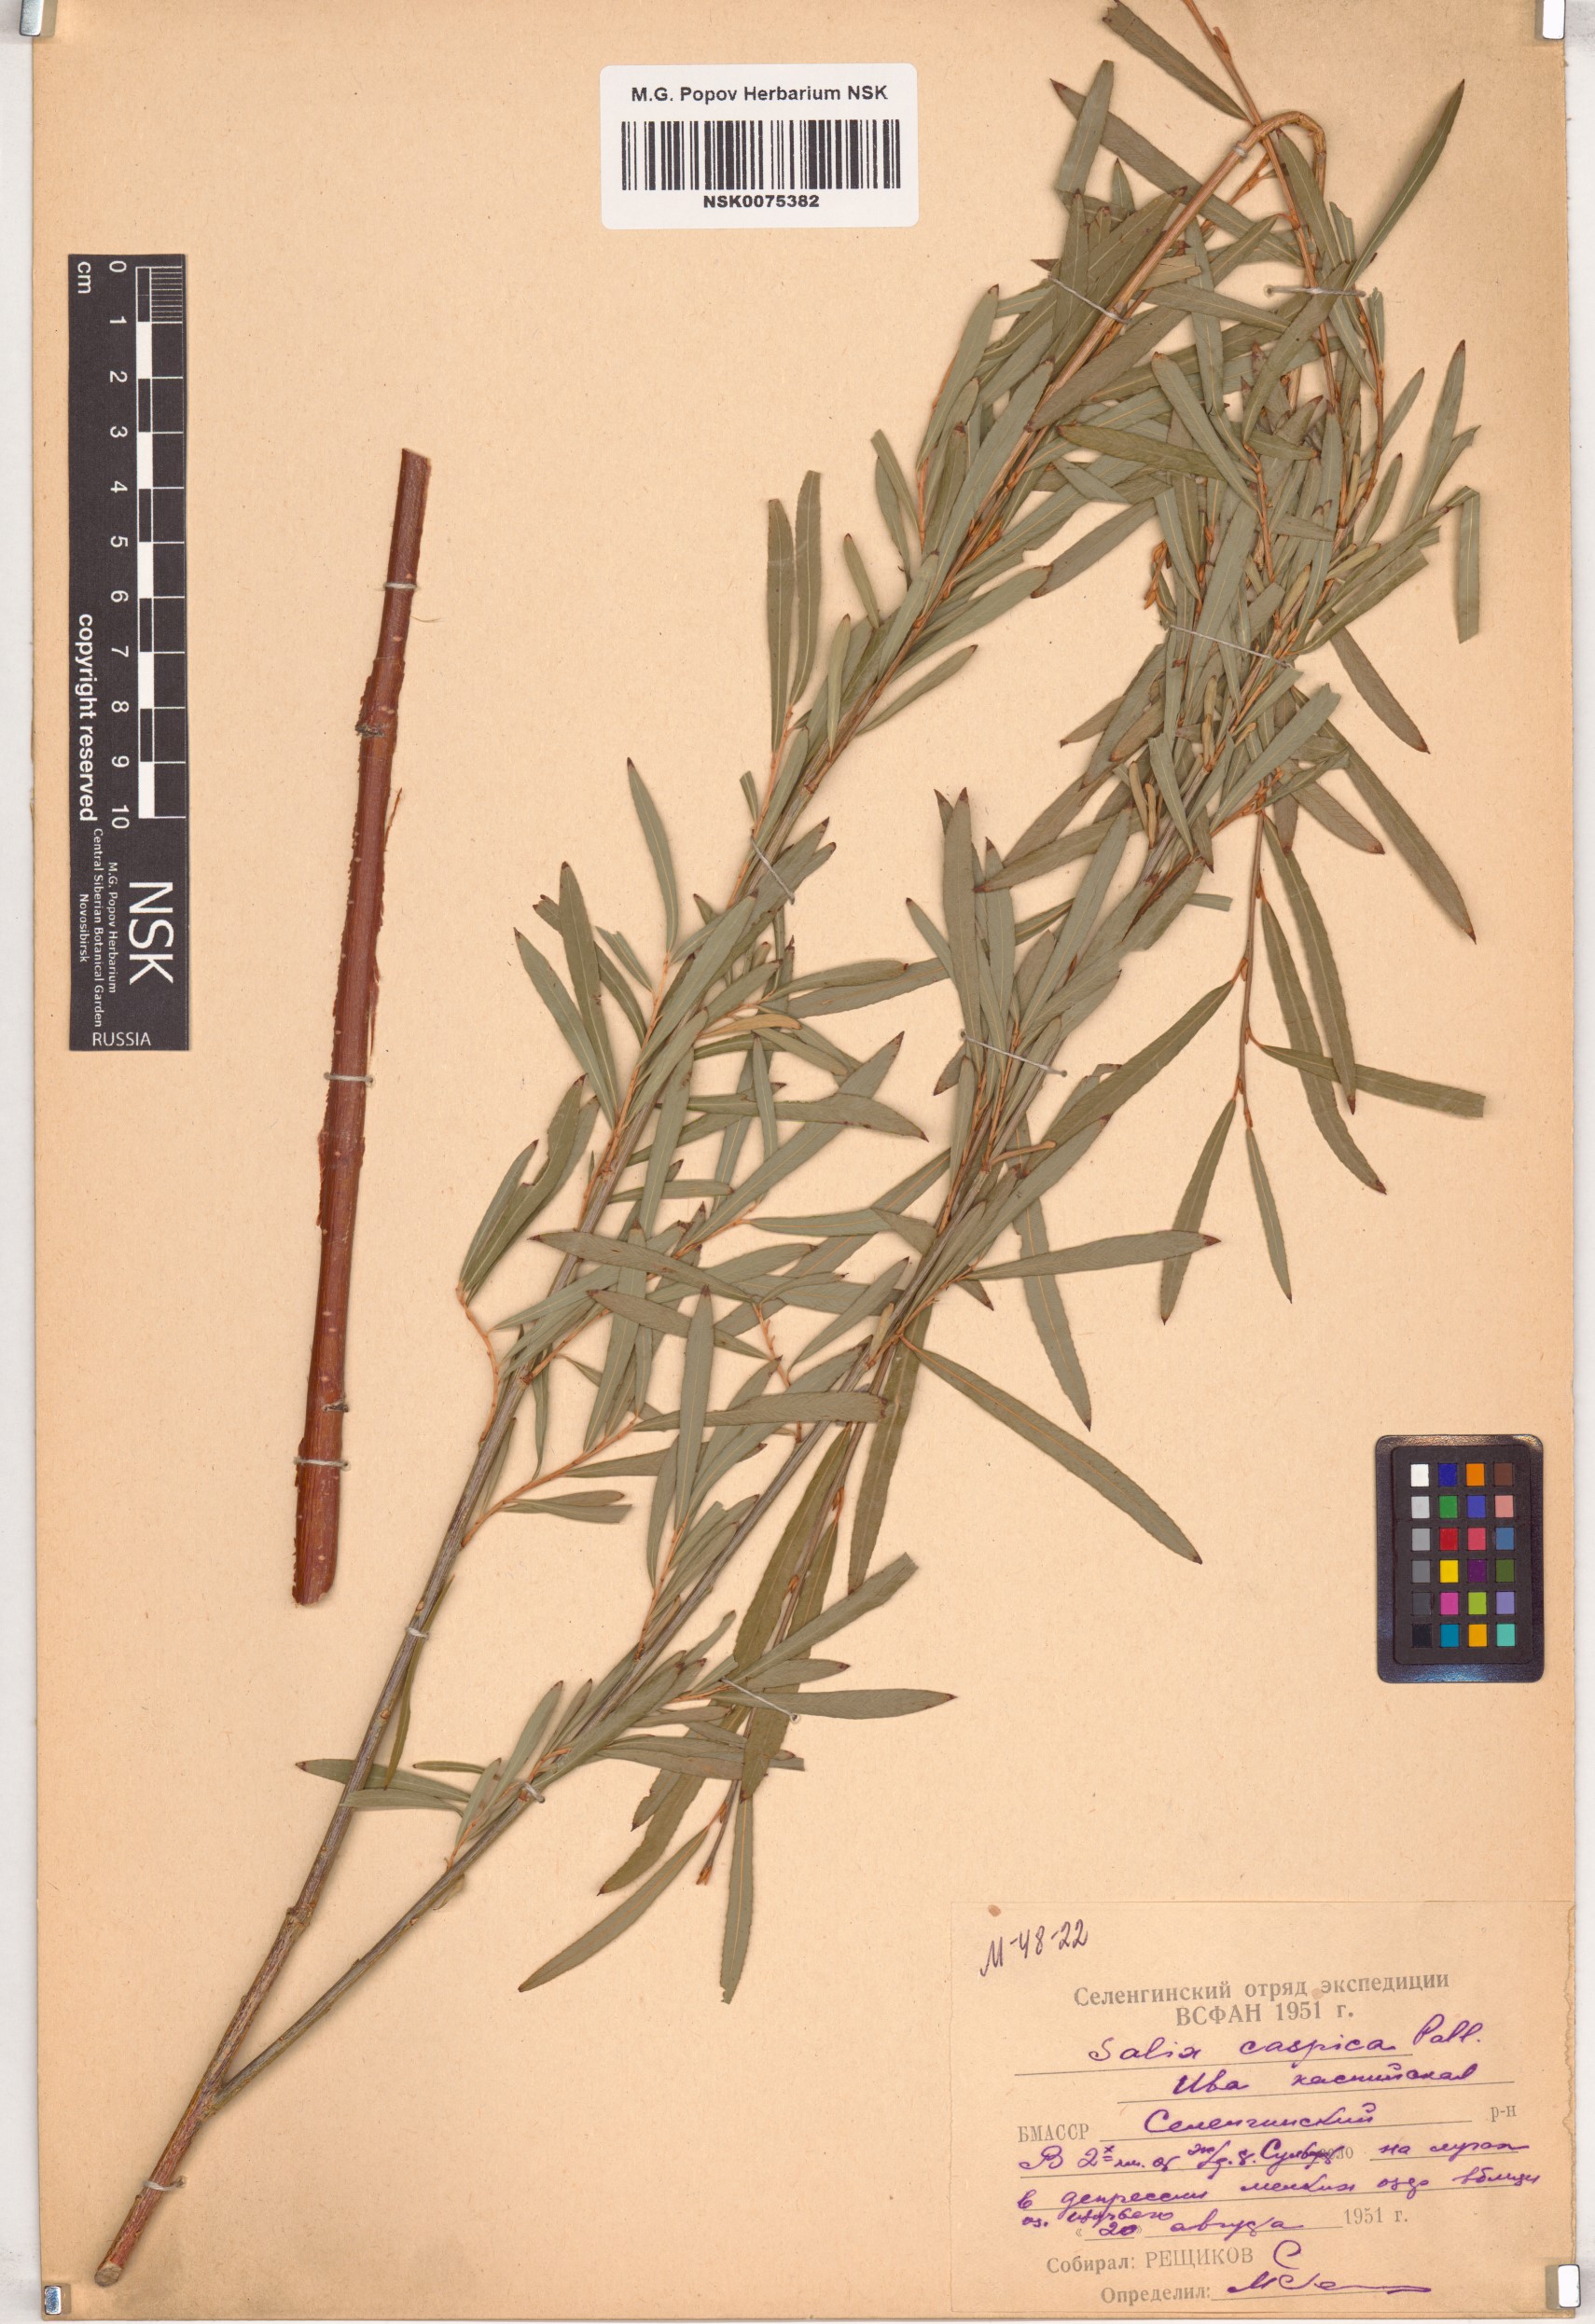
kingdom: Plantae
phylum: Tracheophyta
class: Magnoliopsida
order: Malpighiales
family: Salicaceae
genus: Salix
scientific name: Salix caspica
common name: Caspian willow
